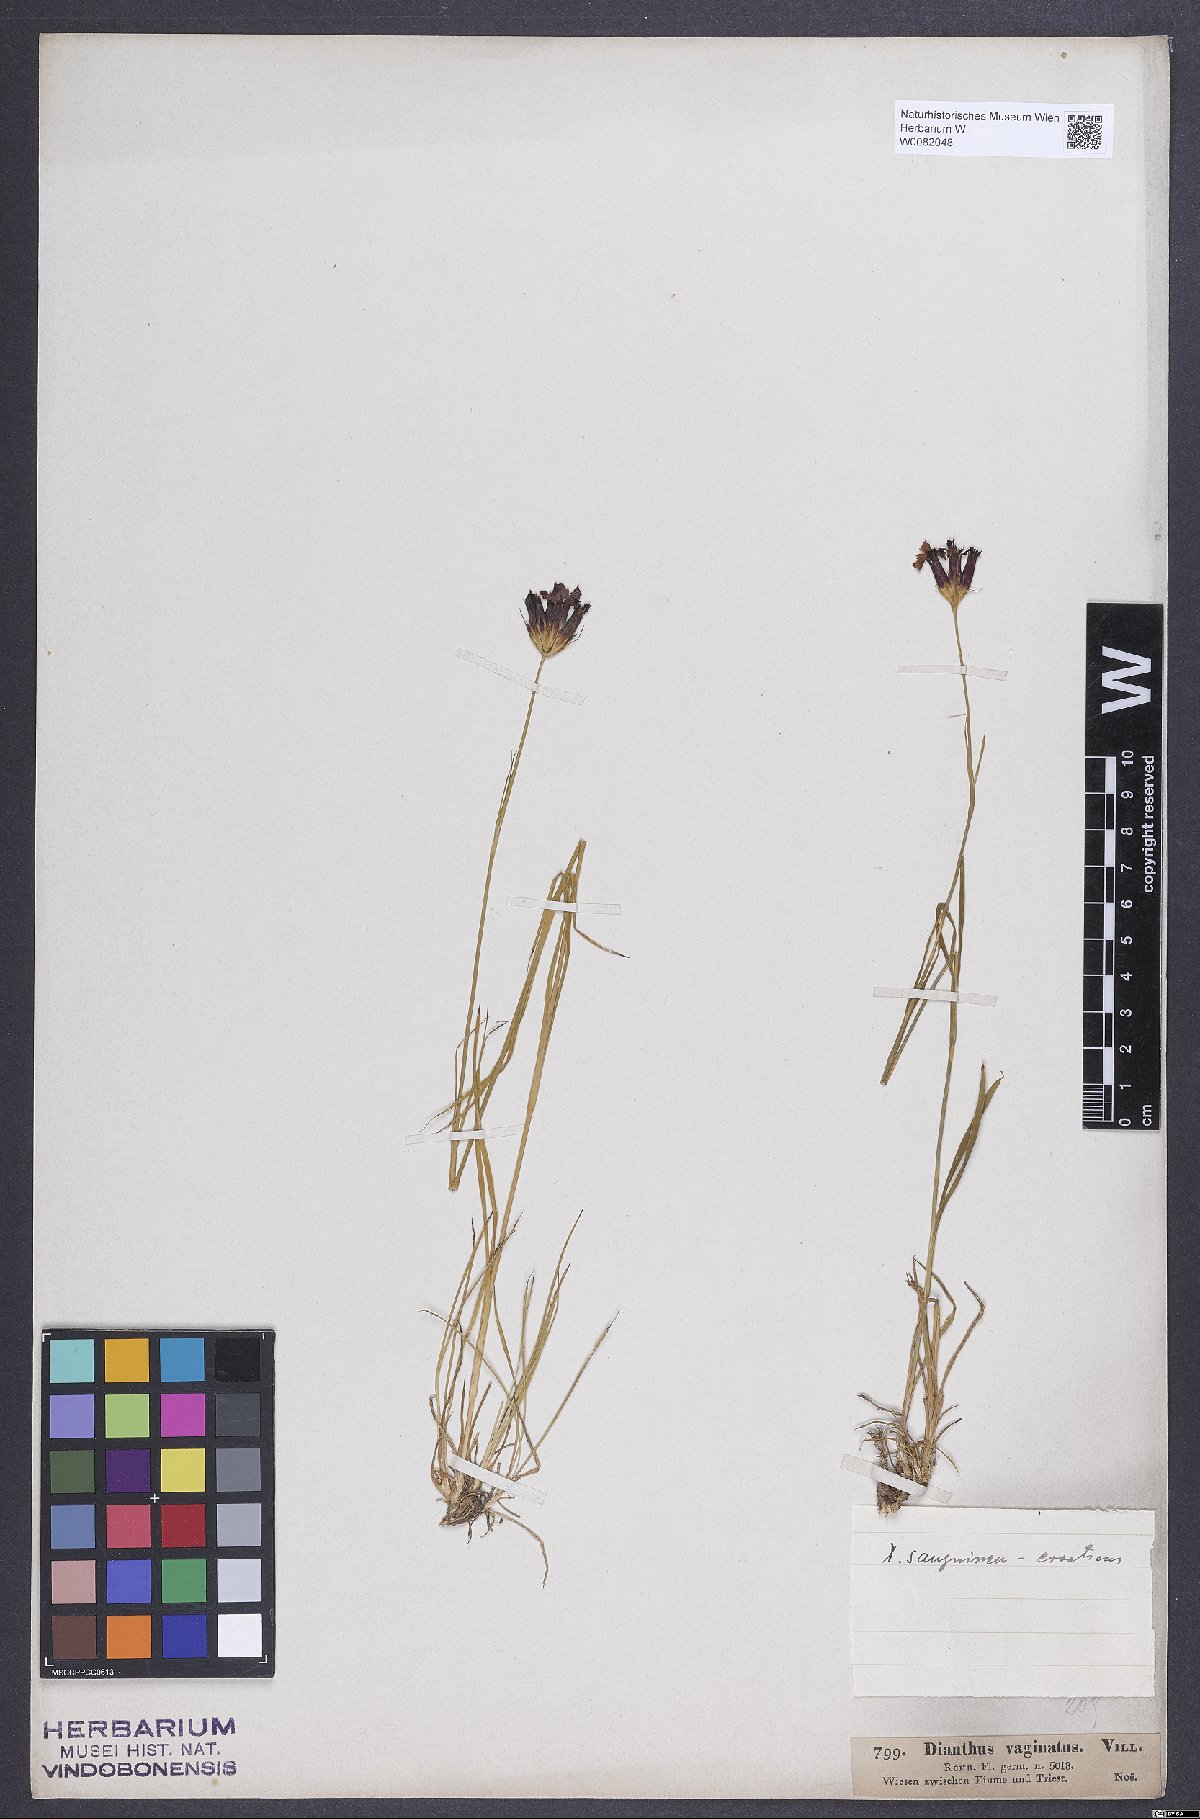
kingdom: Plantae
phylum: Tracheophyta
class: Magnoliopsida
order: Caryophyllales
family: Caryophyllaceae
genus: Dianthus
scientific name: Dianthus carthusianorum
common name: Carthusian pink
